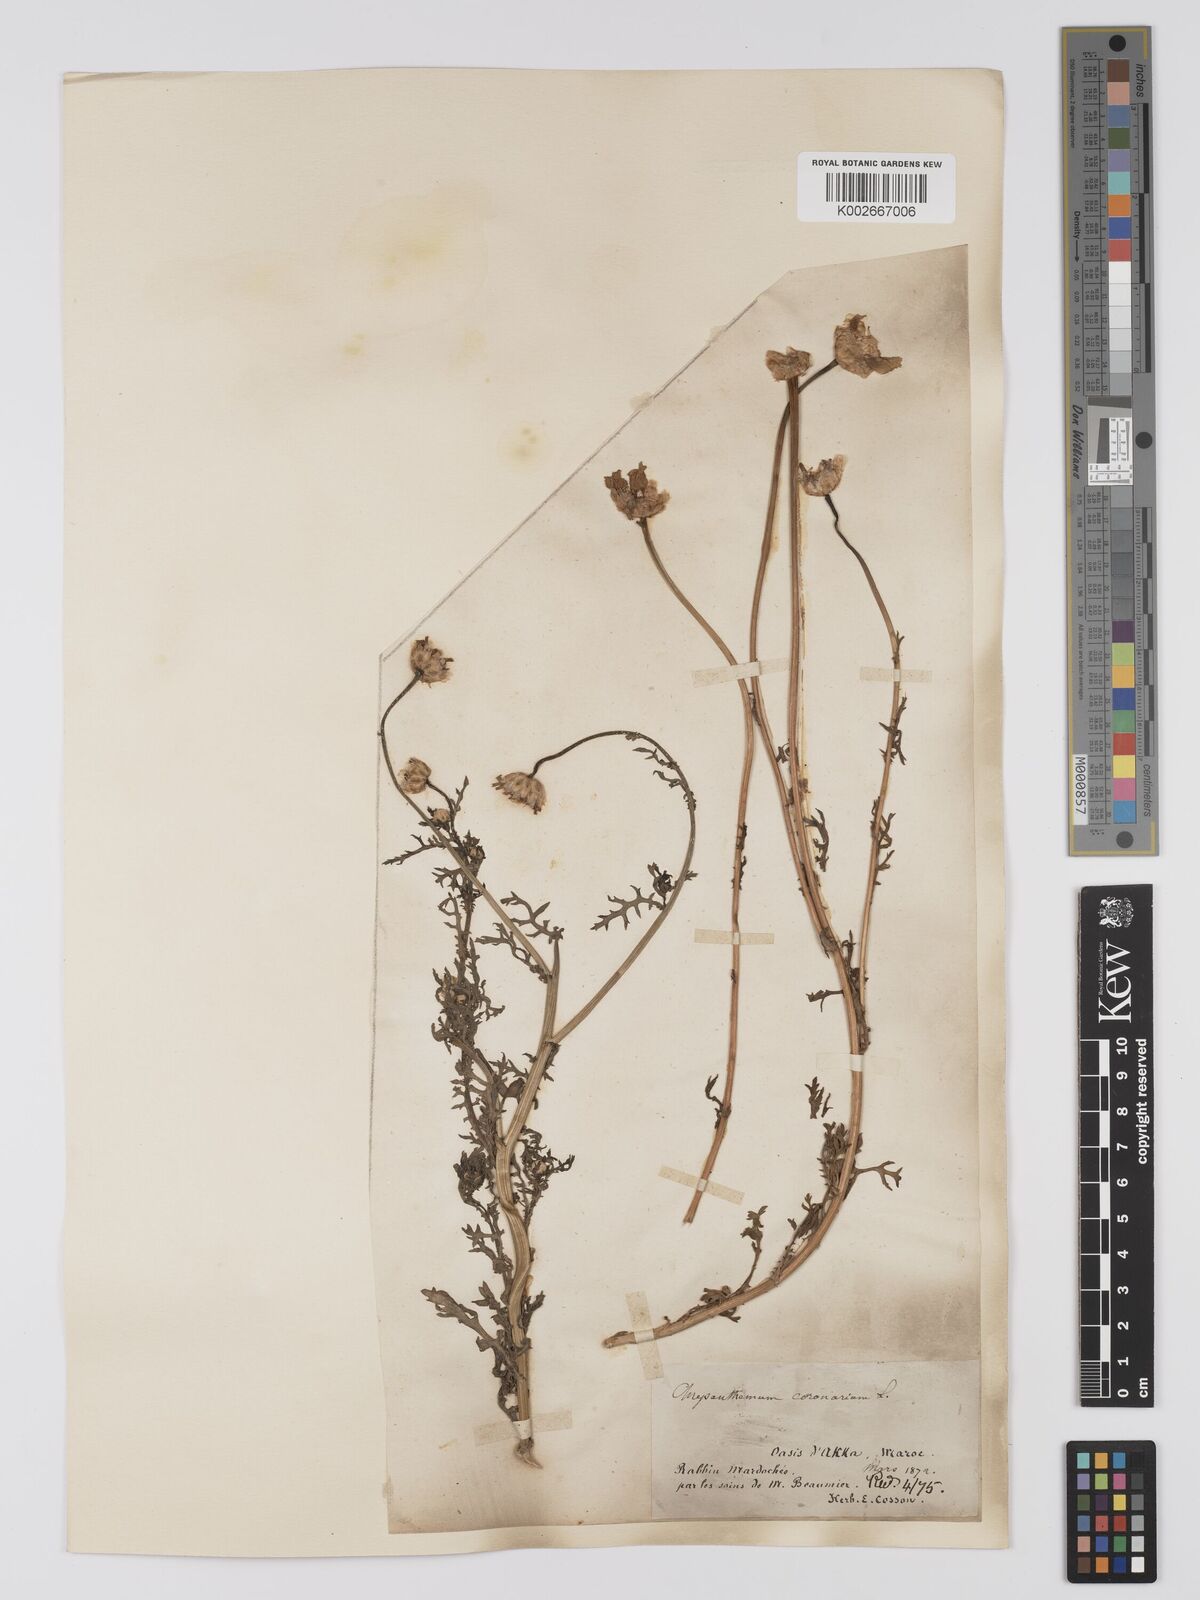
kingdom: Plantae
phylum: Tracheophyta
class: Magnoliopsida
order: Asterales
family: Asteraceae
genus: Glebionis
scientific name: Glebionis coronaria
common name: Crowndaisy
